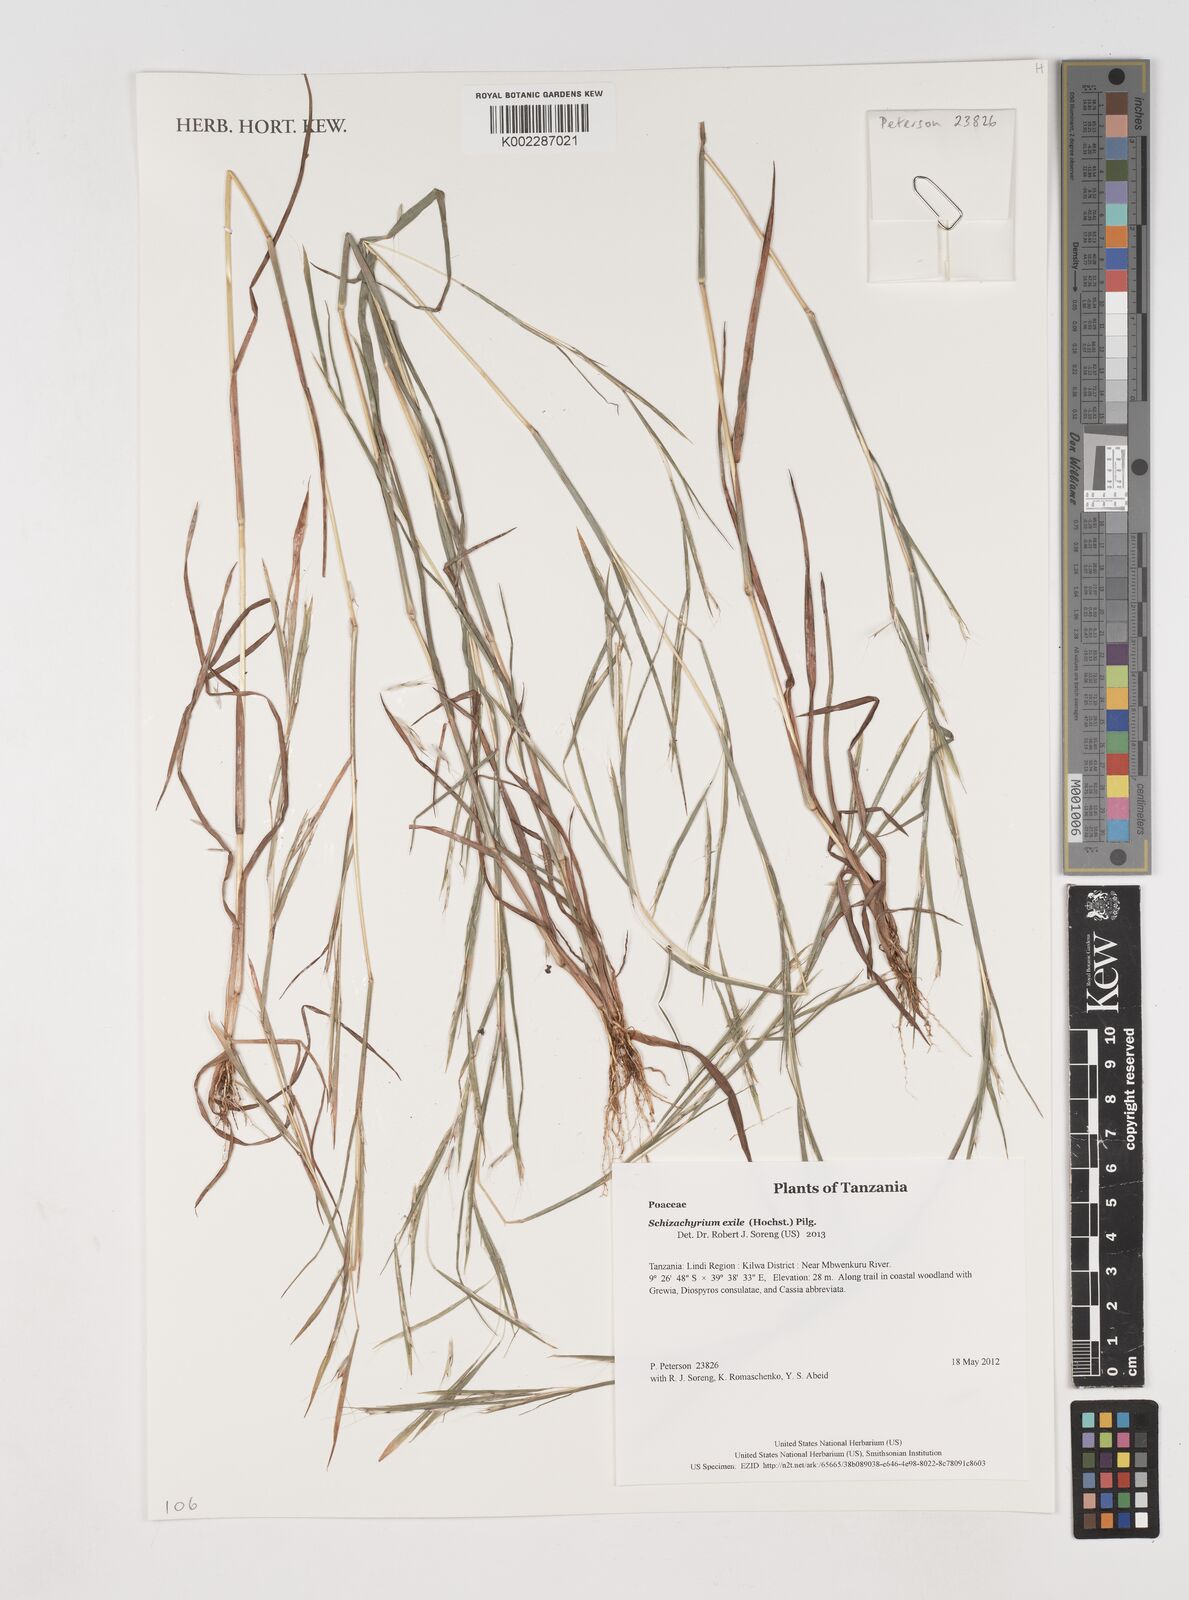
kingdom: Plantae
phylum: Tracheophyta
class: Liliopsida
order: Poales
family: Poaceae
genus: Schizachyrium
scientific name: Schizachyrium exile
